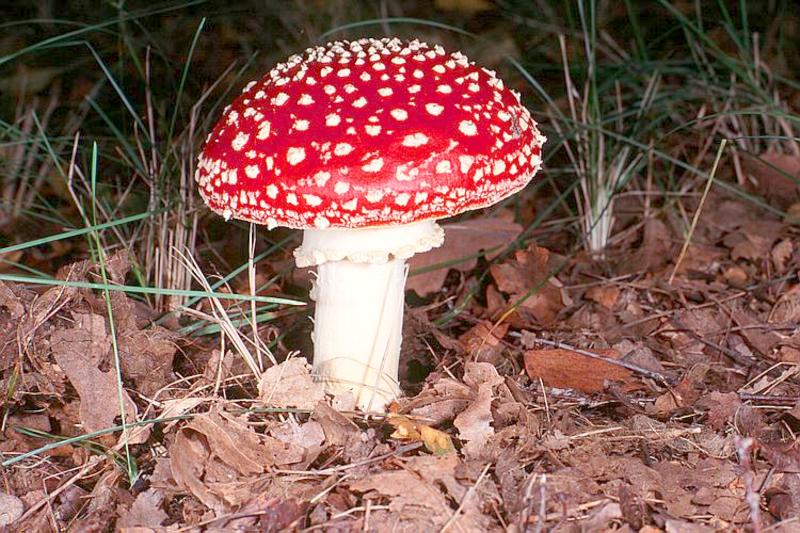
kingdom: Fungi
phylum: Basidiomycota
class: Agaricomycetes
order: Agaricales
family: Amanitaceae
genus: Amanita
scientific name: Amanita muscaria
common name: Fly agaric
